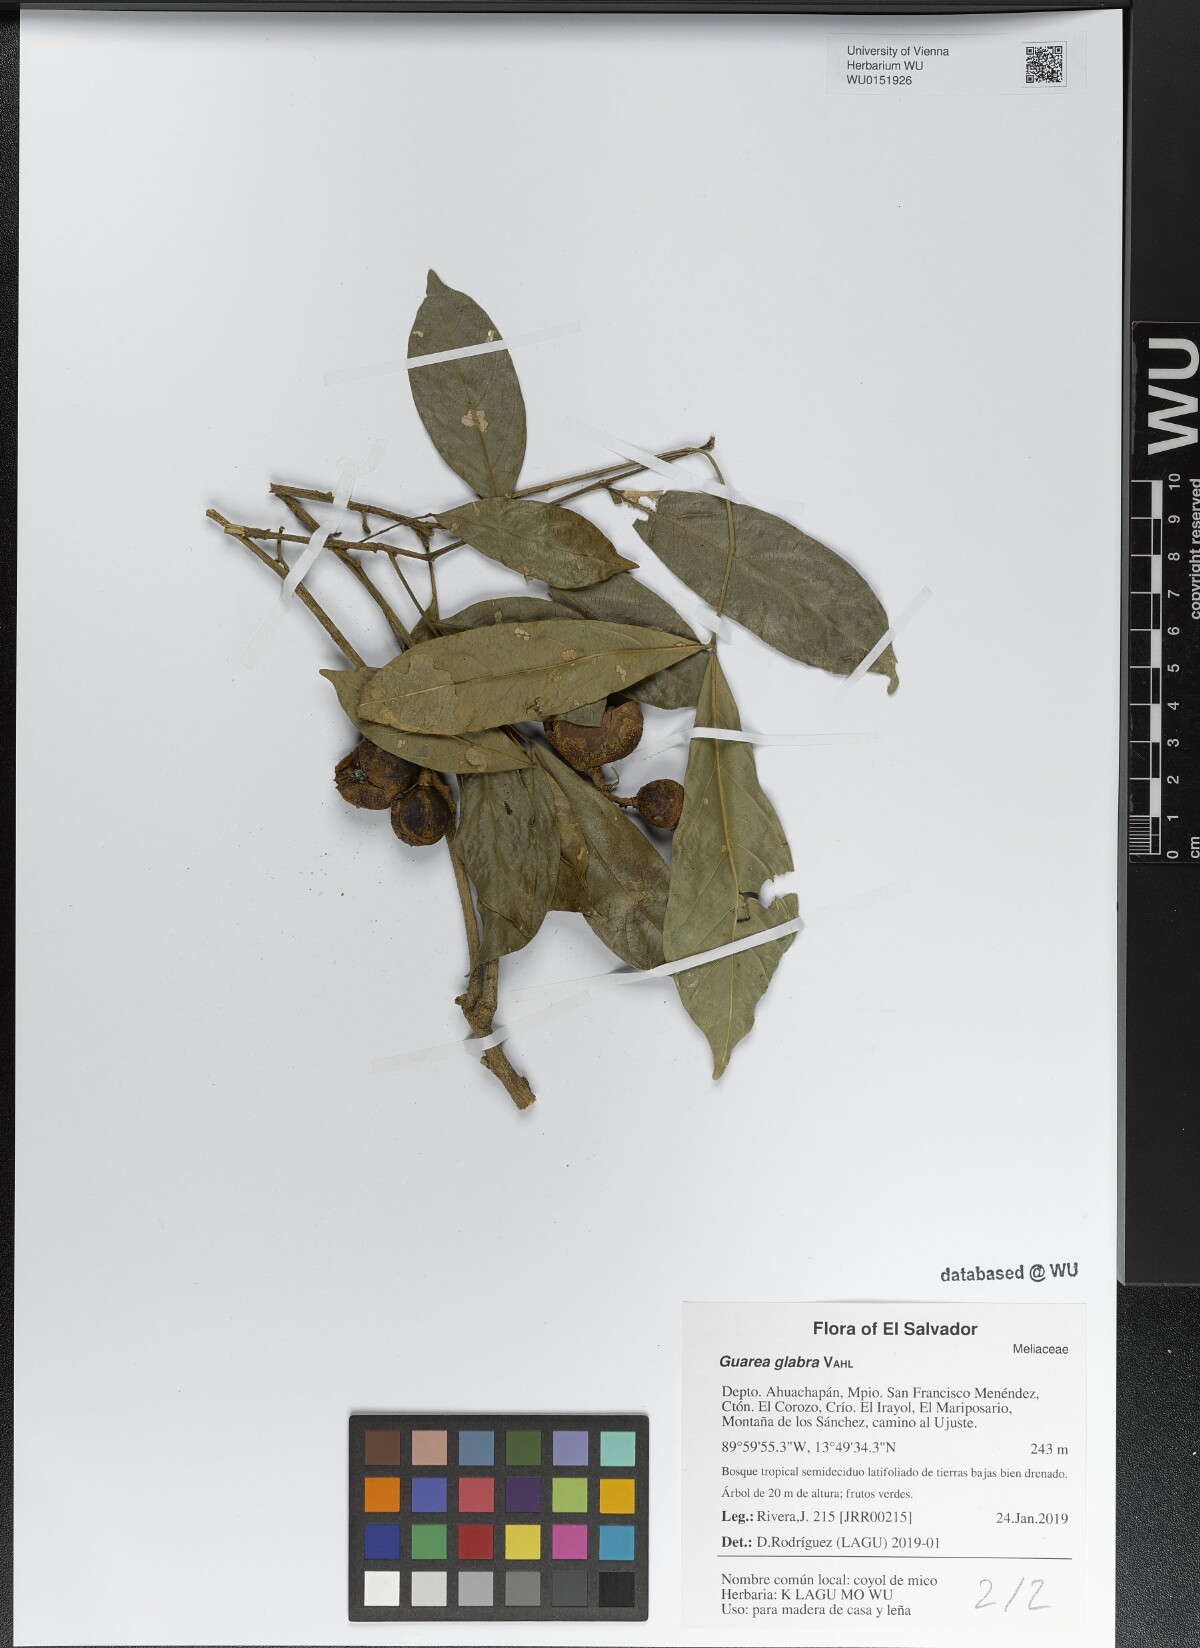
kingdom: Plantae
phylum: Tracheophyta
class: Magnoliopsida
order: Sapindales
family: Meliaceae
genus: Guarea
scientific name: Guarea glabra
